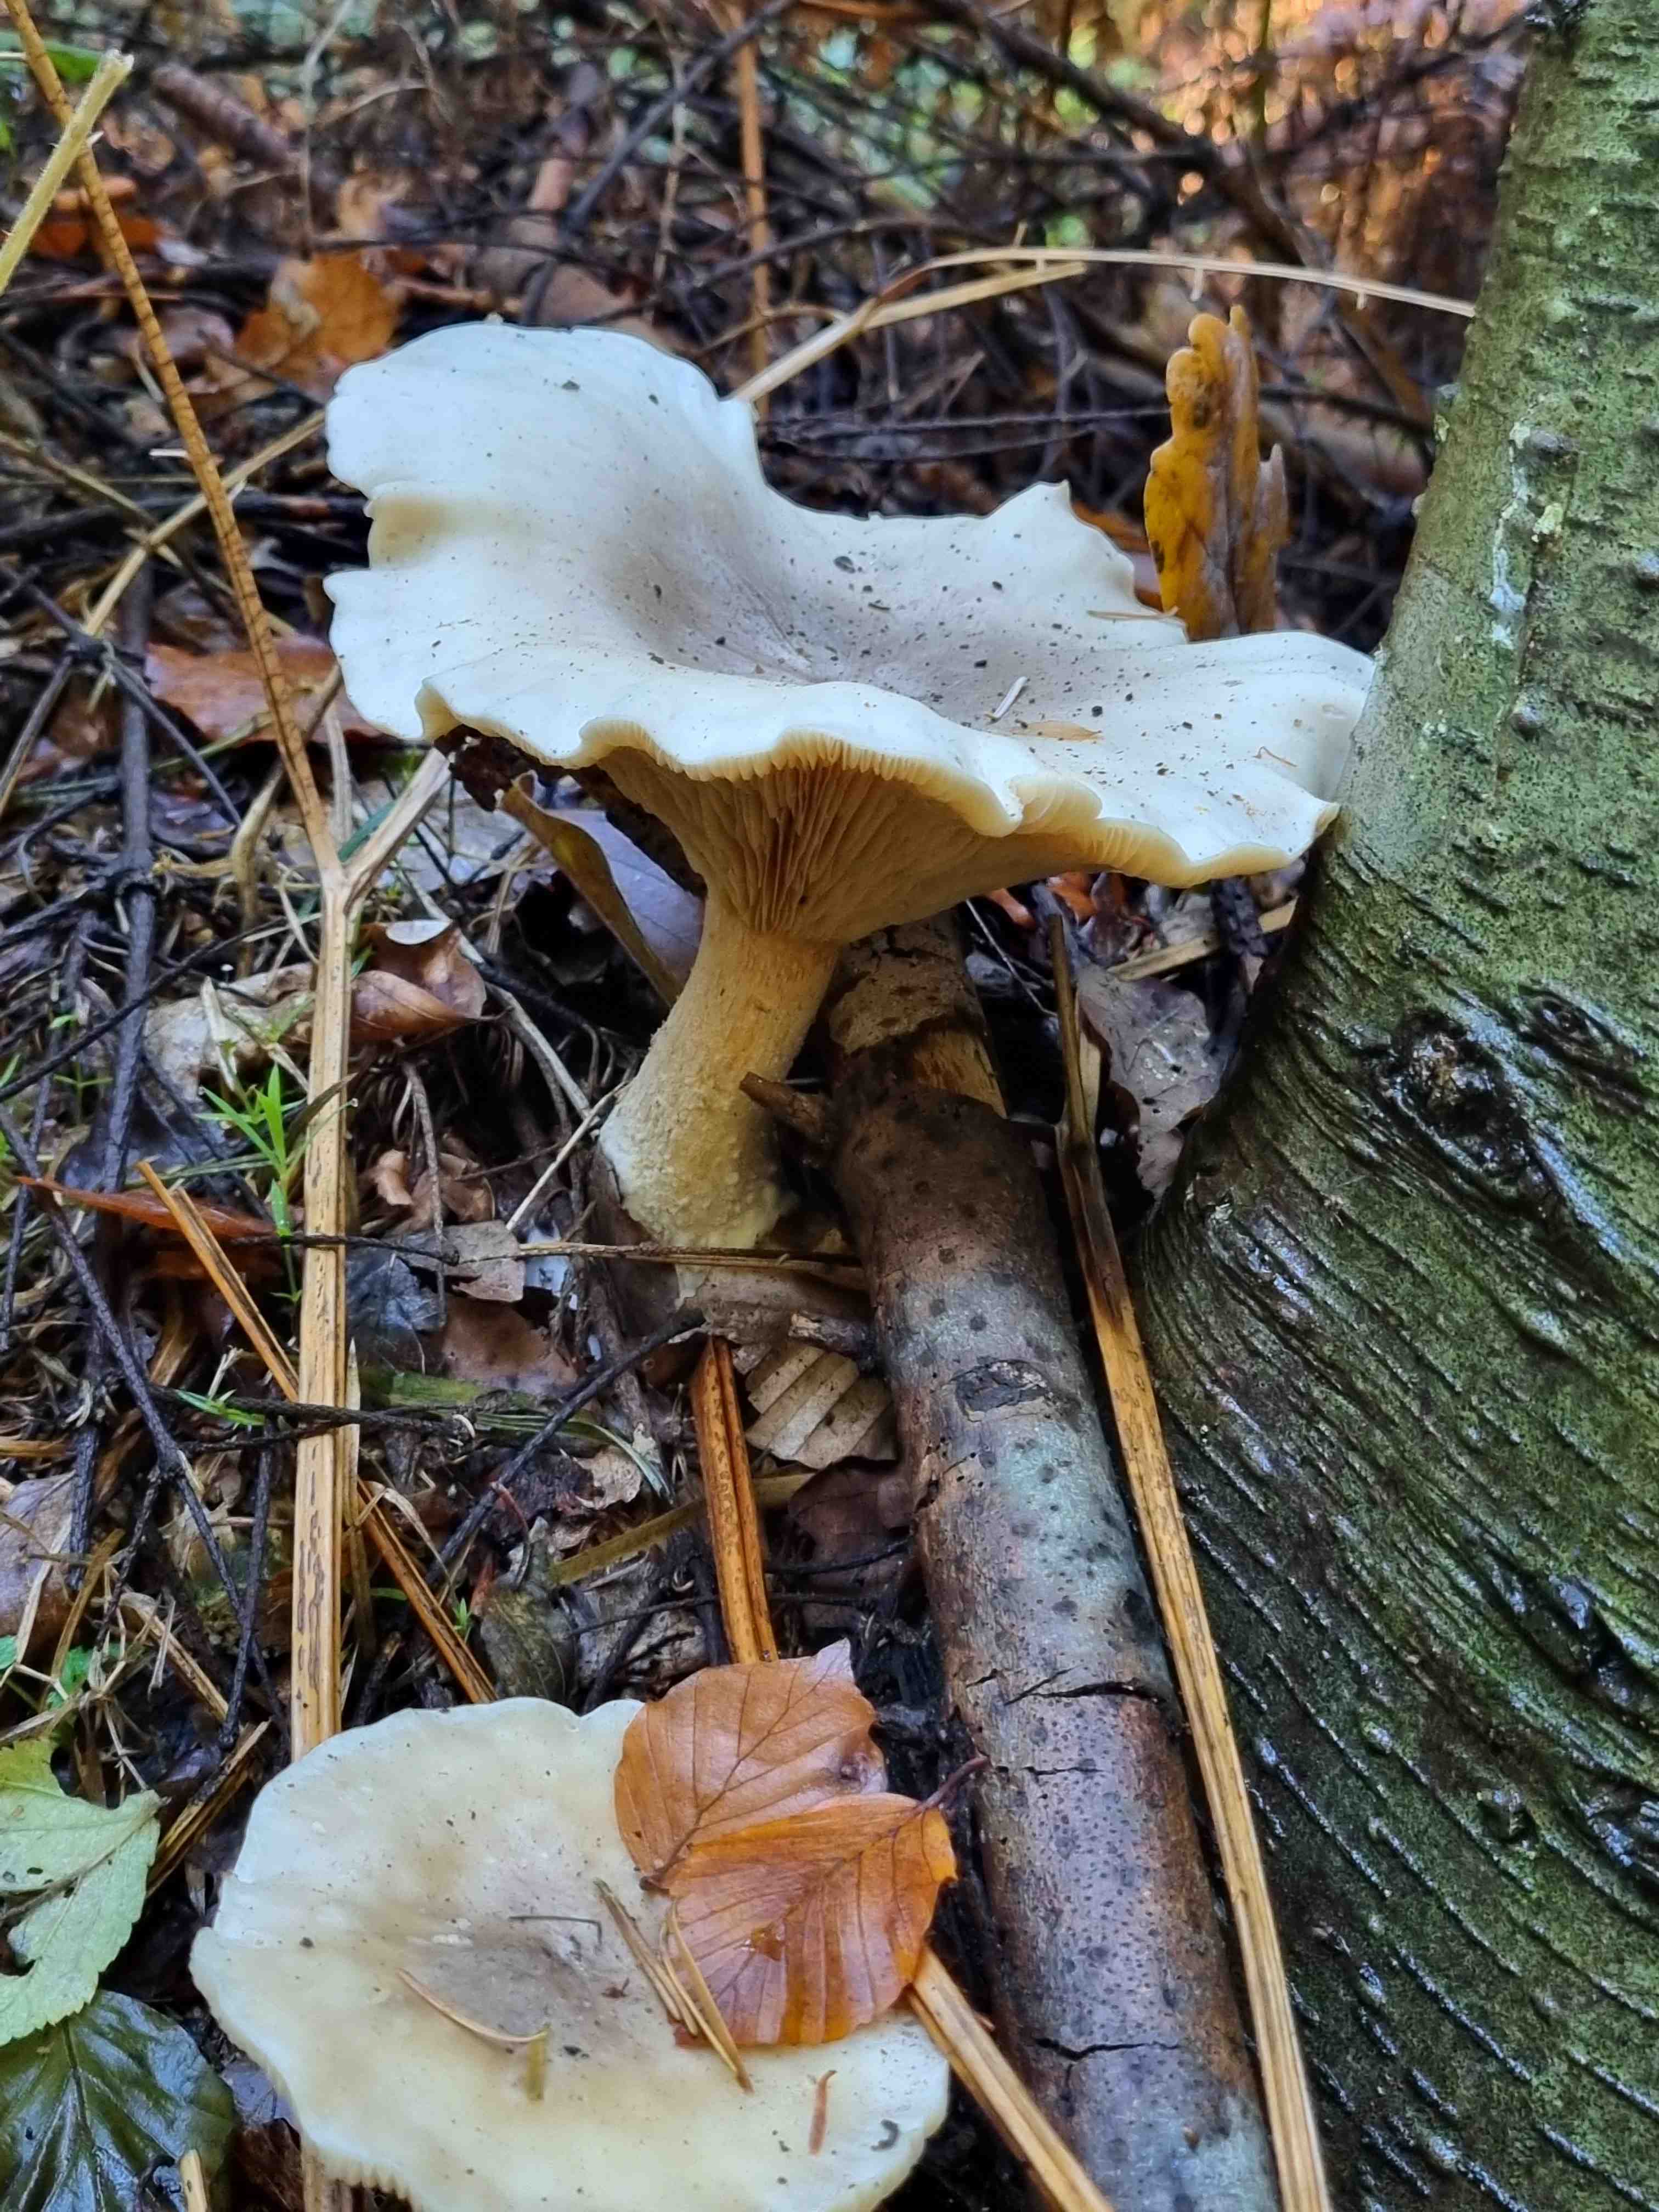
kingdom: Fungi
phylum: Basidiomycota
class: Agaricomycetes
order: Agaricales
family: Tricholomataceae
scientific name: Tricholomataceae
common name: ridderhatfamilien
